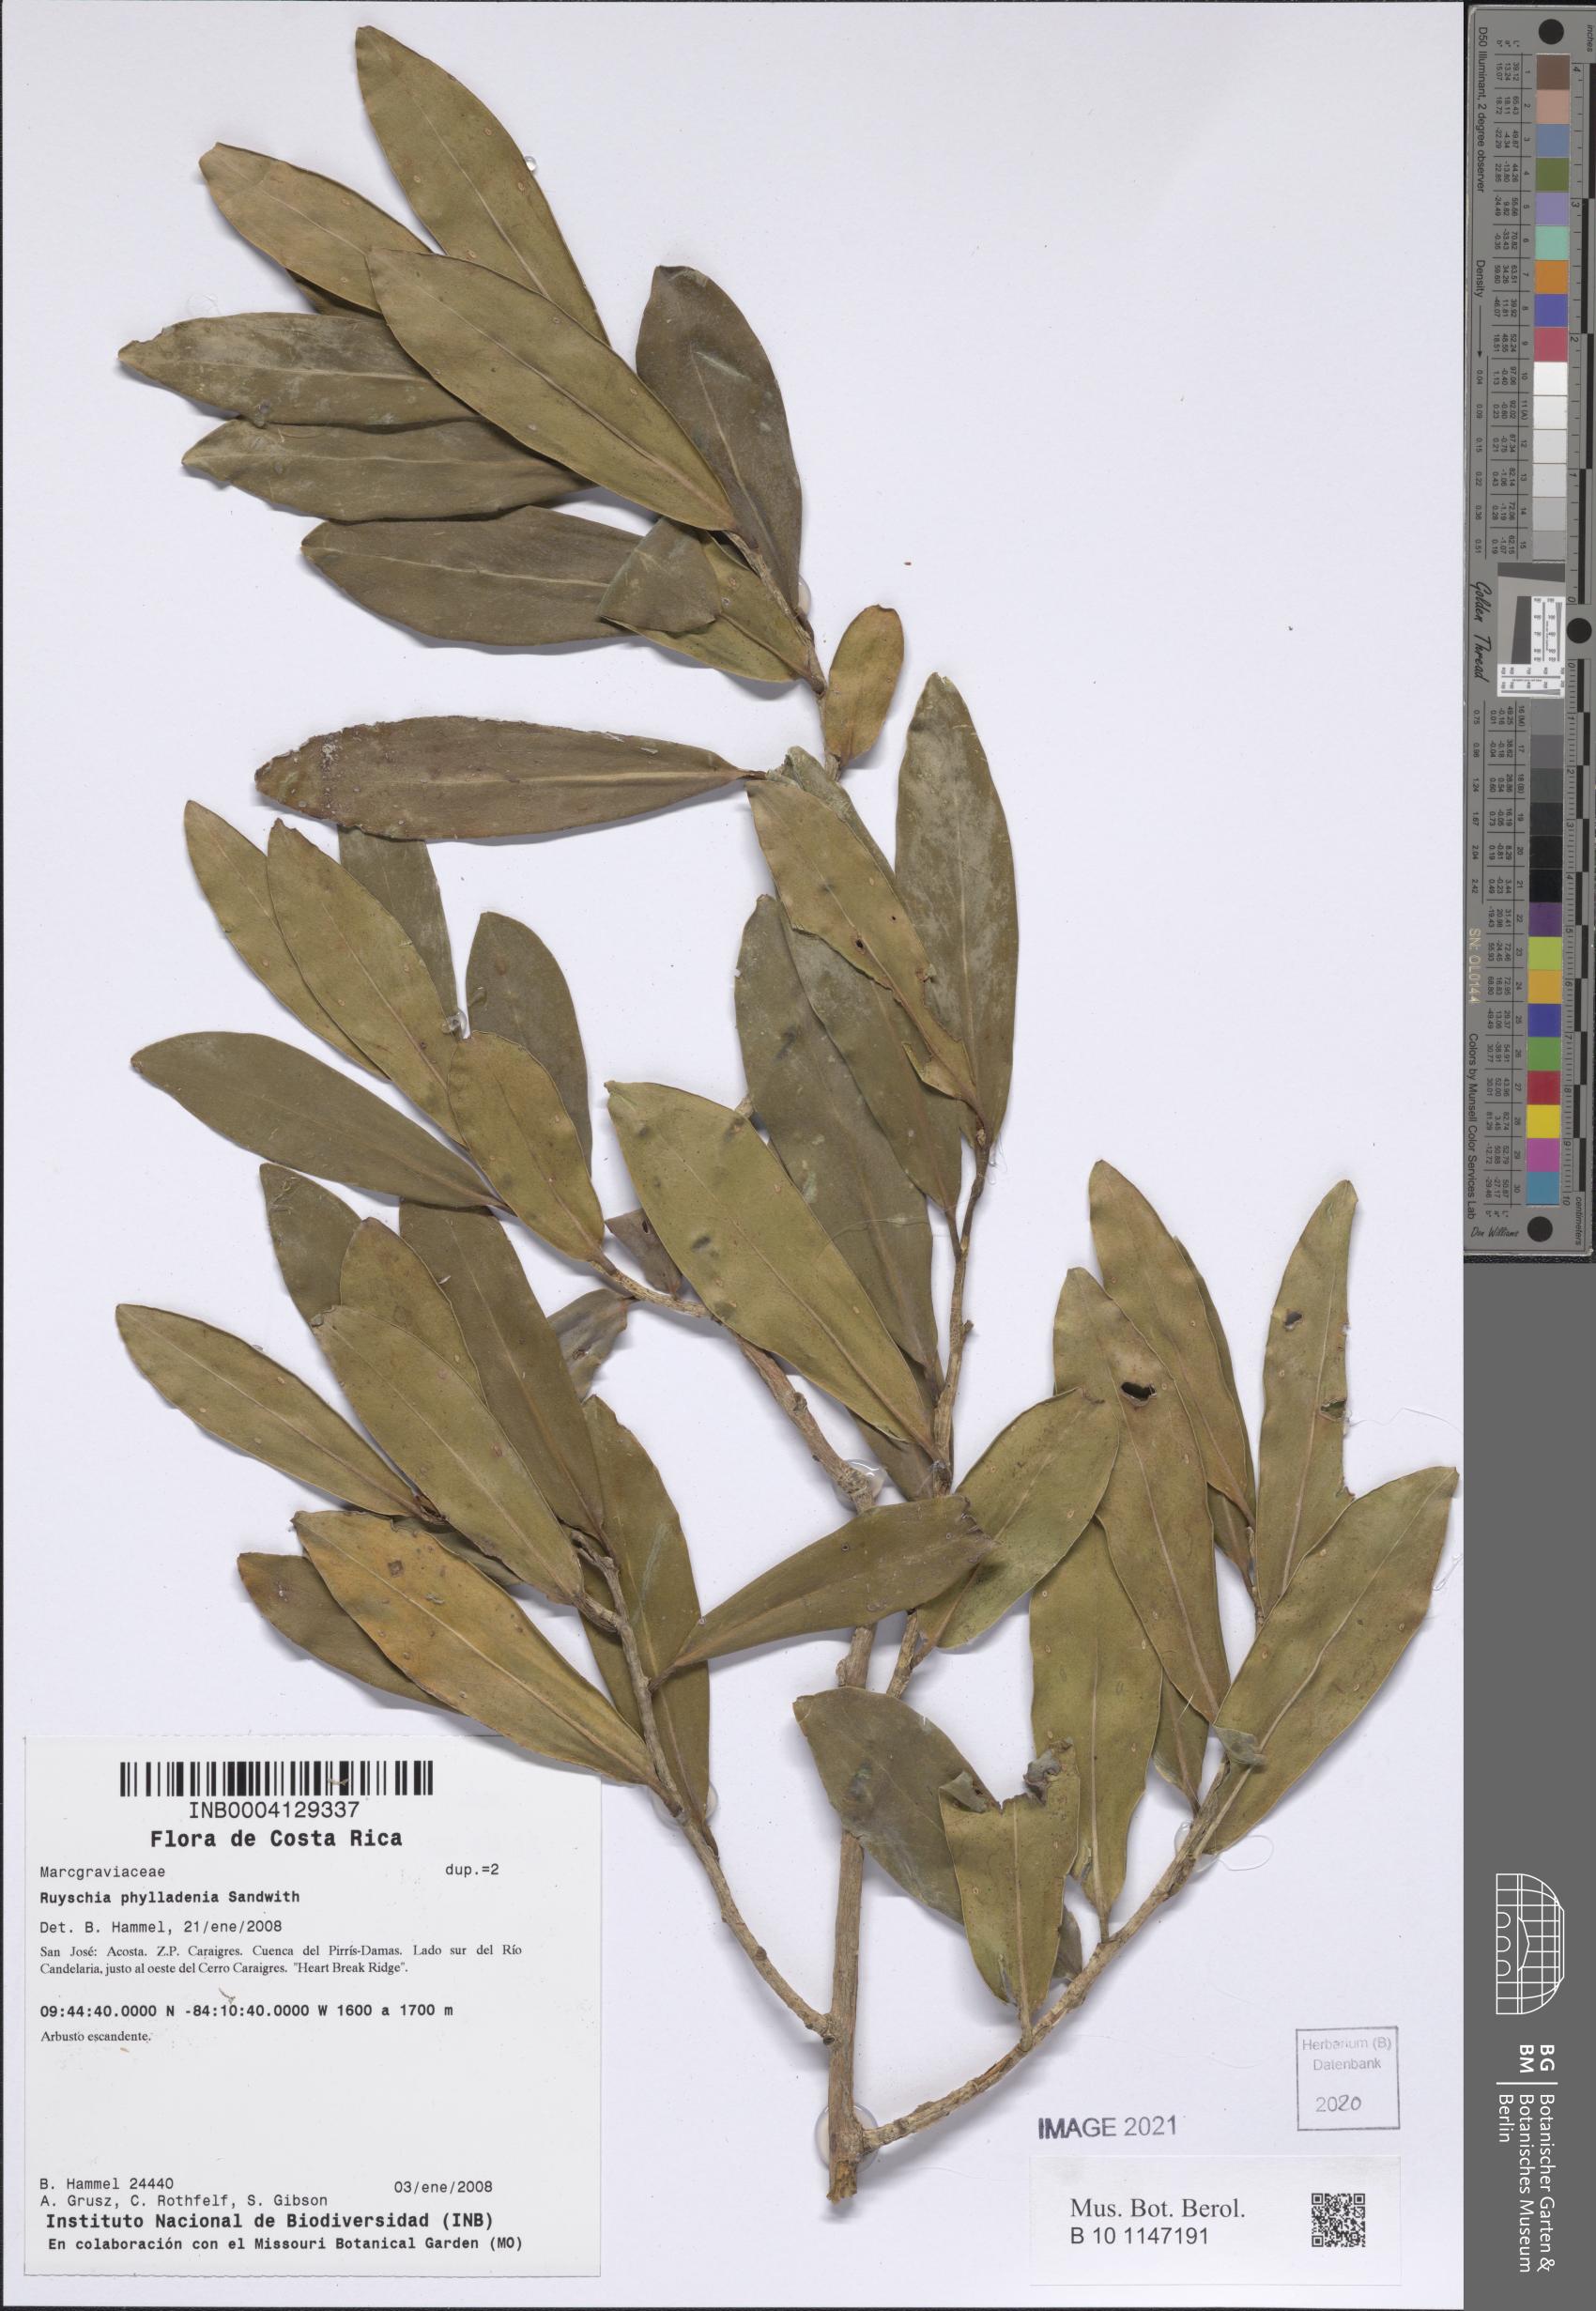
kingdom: Plantae
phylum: Tracheophyta
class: Magnoliopsida
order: Ericales
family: Marcgraviaceae
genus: Ruyschia
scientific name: Ruyschia phylladenia
